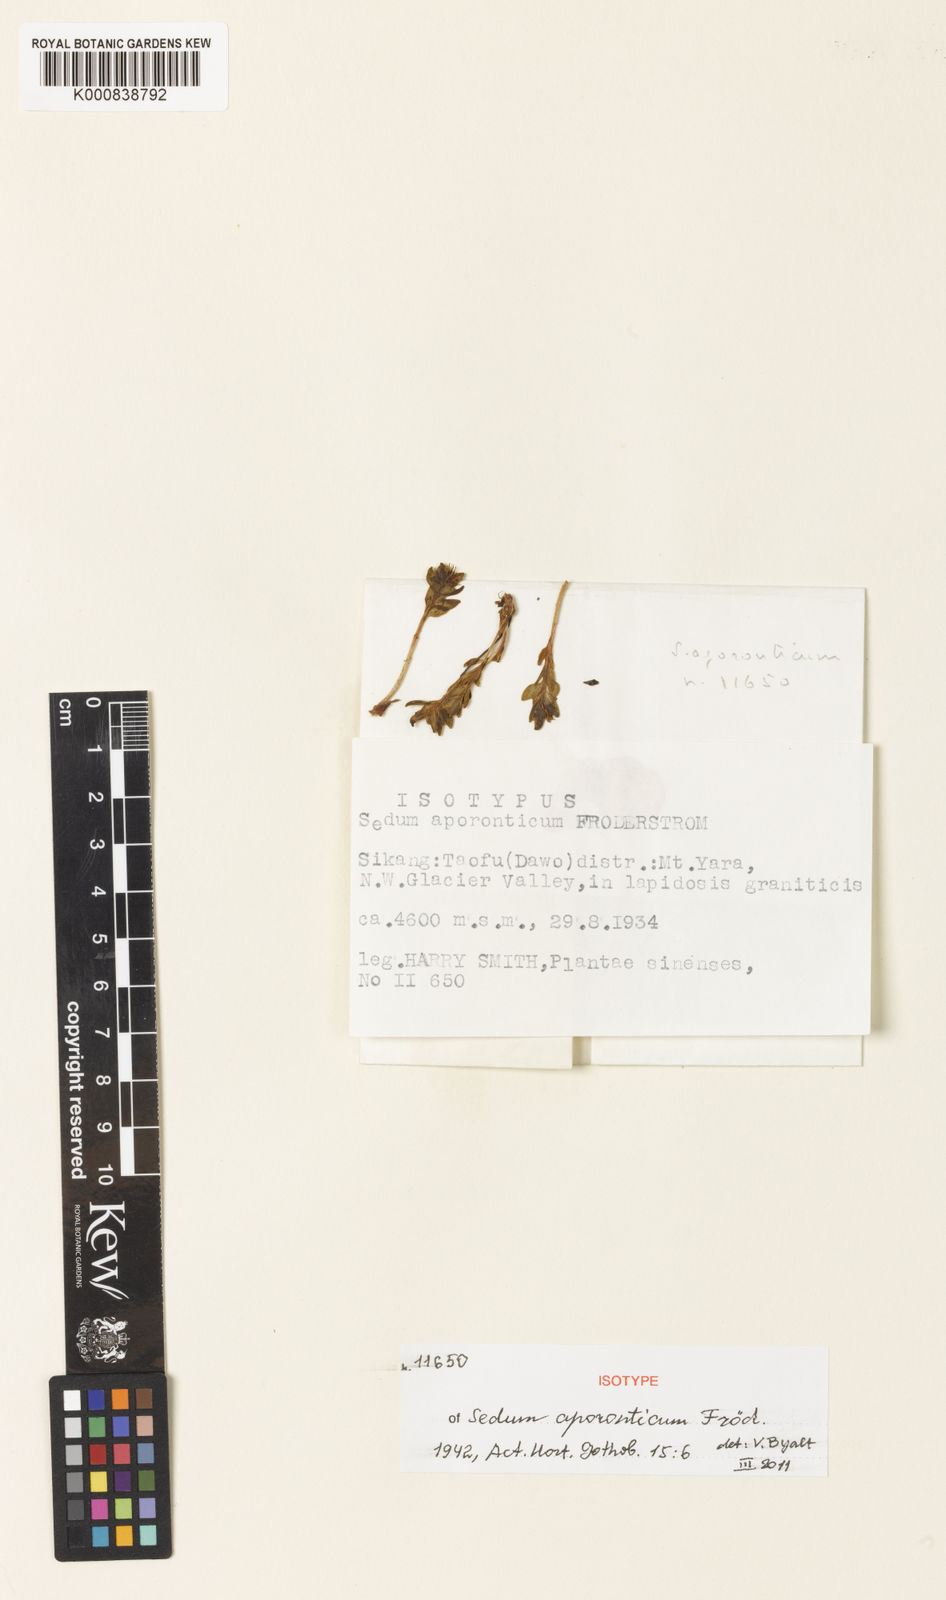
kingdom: Plantae
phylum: Tracheophyta
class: Magnoliopsida
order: Saxifragales
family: Crassulaceae
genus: Sedum
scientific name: Sedum
